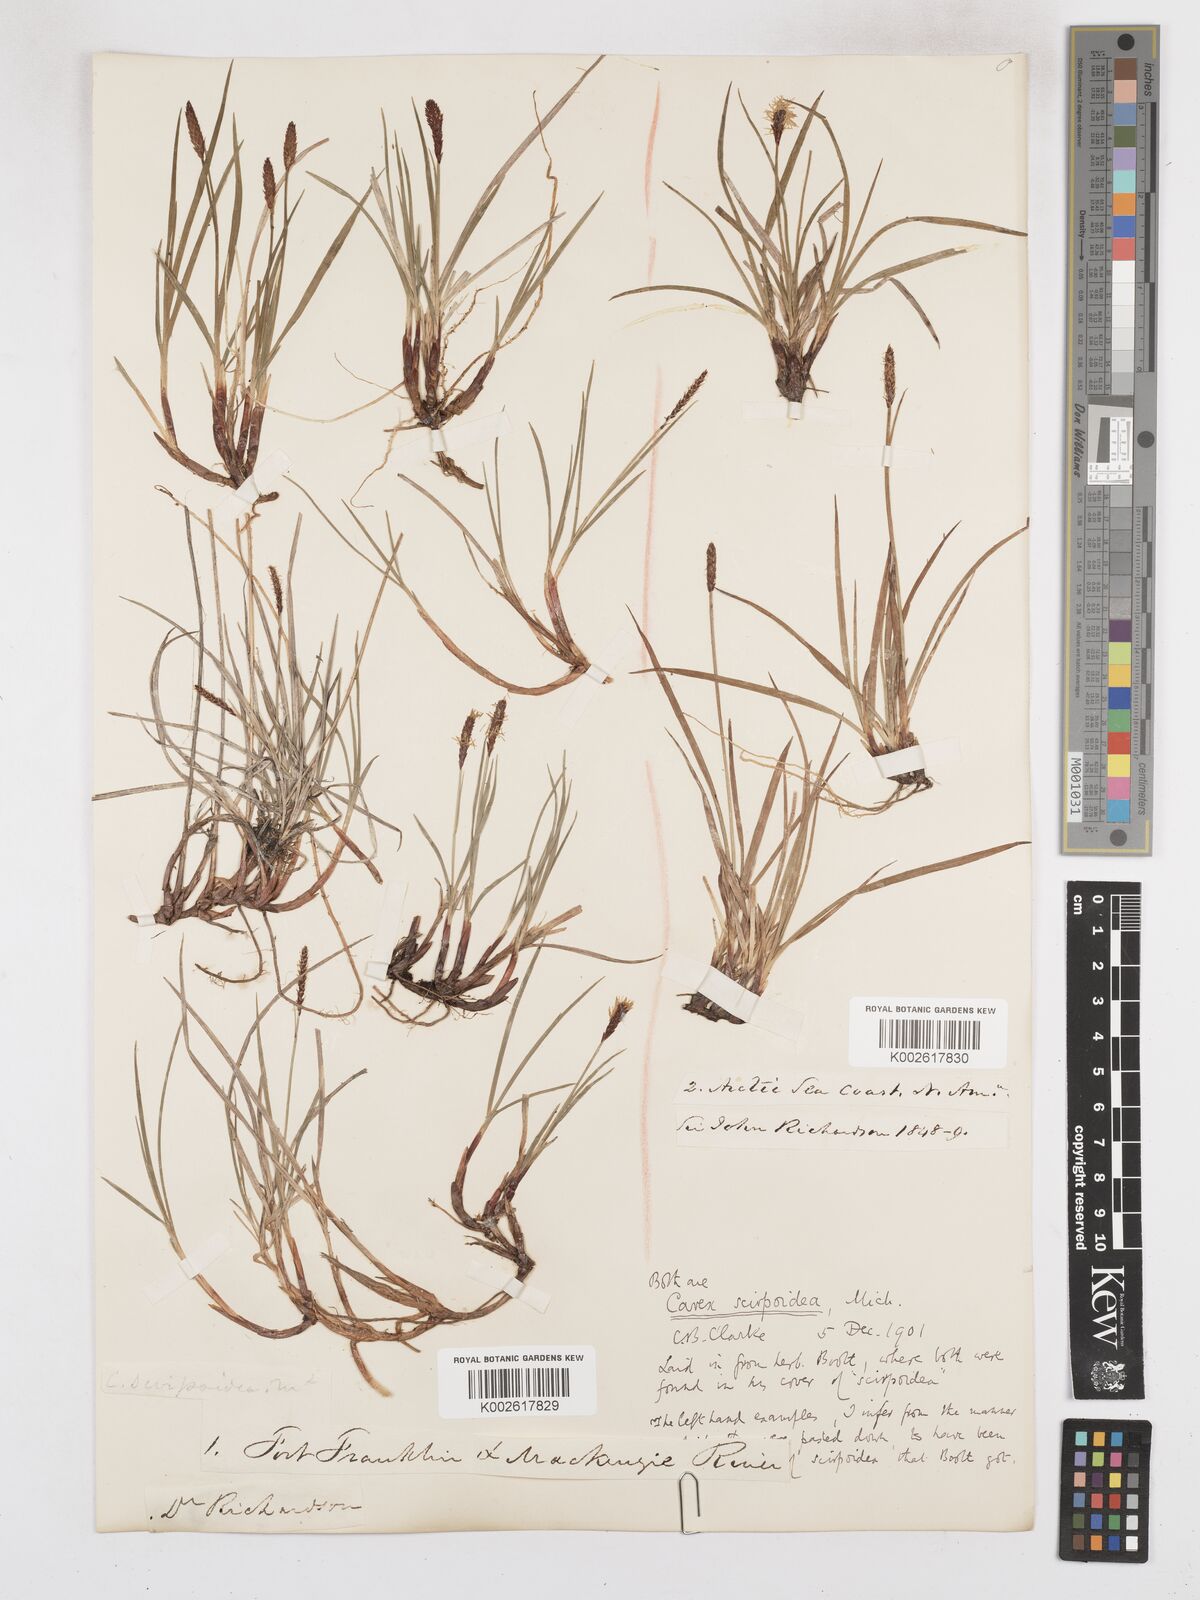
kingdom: Plantae
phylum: Tracheophyta
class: Liliopsida
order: Poales
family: Cyperaceae
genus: Carex
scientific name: Carex scirpoidea
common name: Canada single-spike sedge
